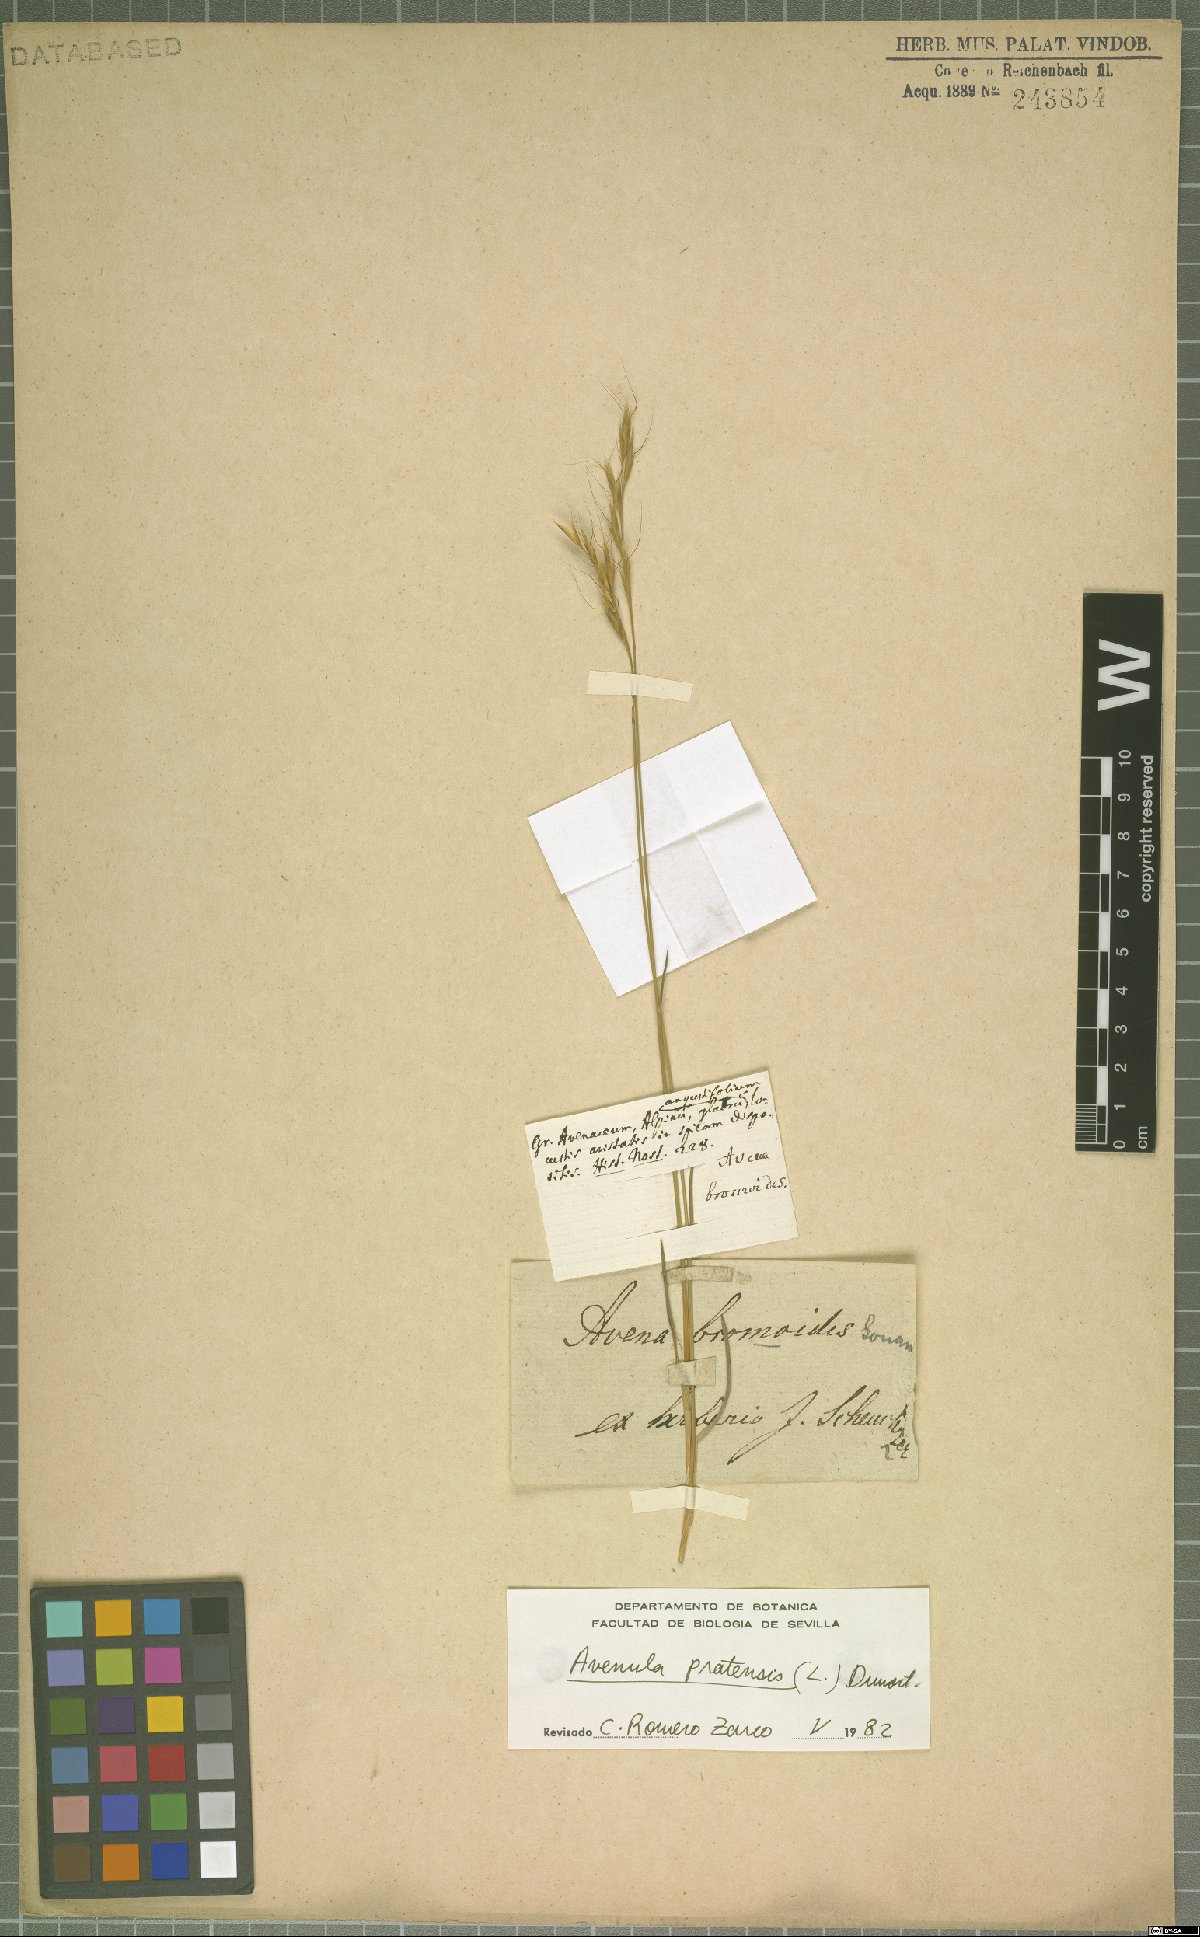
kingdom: Plantae
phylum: Tracheophyta
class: Liliopsida
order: Poales
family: Poaceae
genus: Helictochloa
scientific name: Helictochloa pratensis
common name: Meadow oat grass
